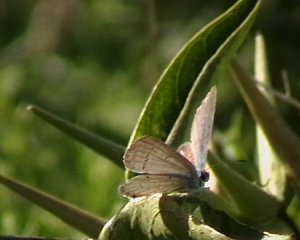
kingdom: Animalia
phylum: Arthropoda
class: Insecta
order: Lepidoptera
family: Lycaenidae
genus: Cyaniris
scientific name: Cyaniris neglecta
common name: Summer Azure
